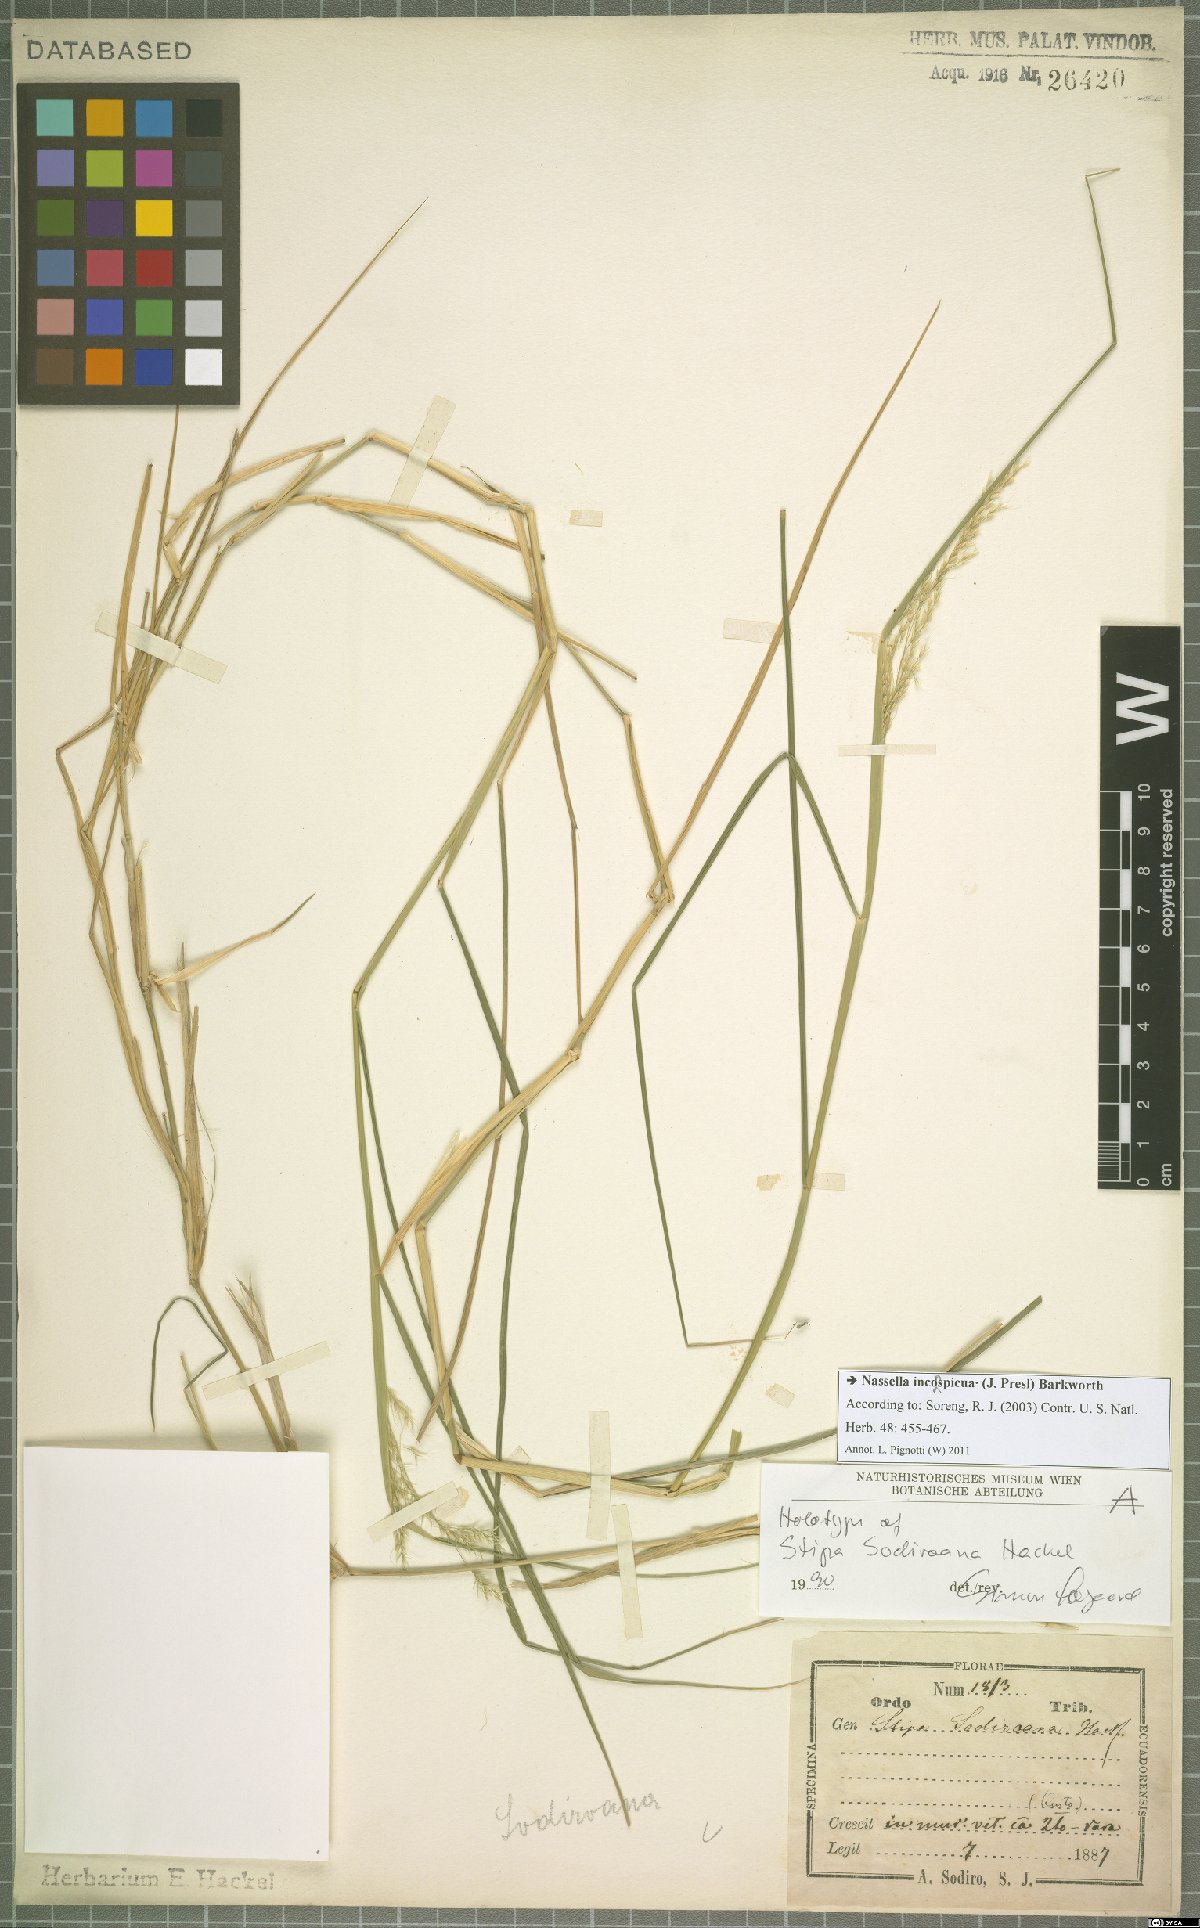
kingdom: Plantae
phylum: Tracheophyta
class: Liliopsida
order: Poales
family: Poaceae
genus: Nassella
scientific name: Nassella inconspicua
